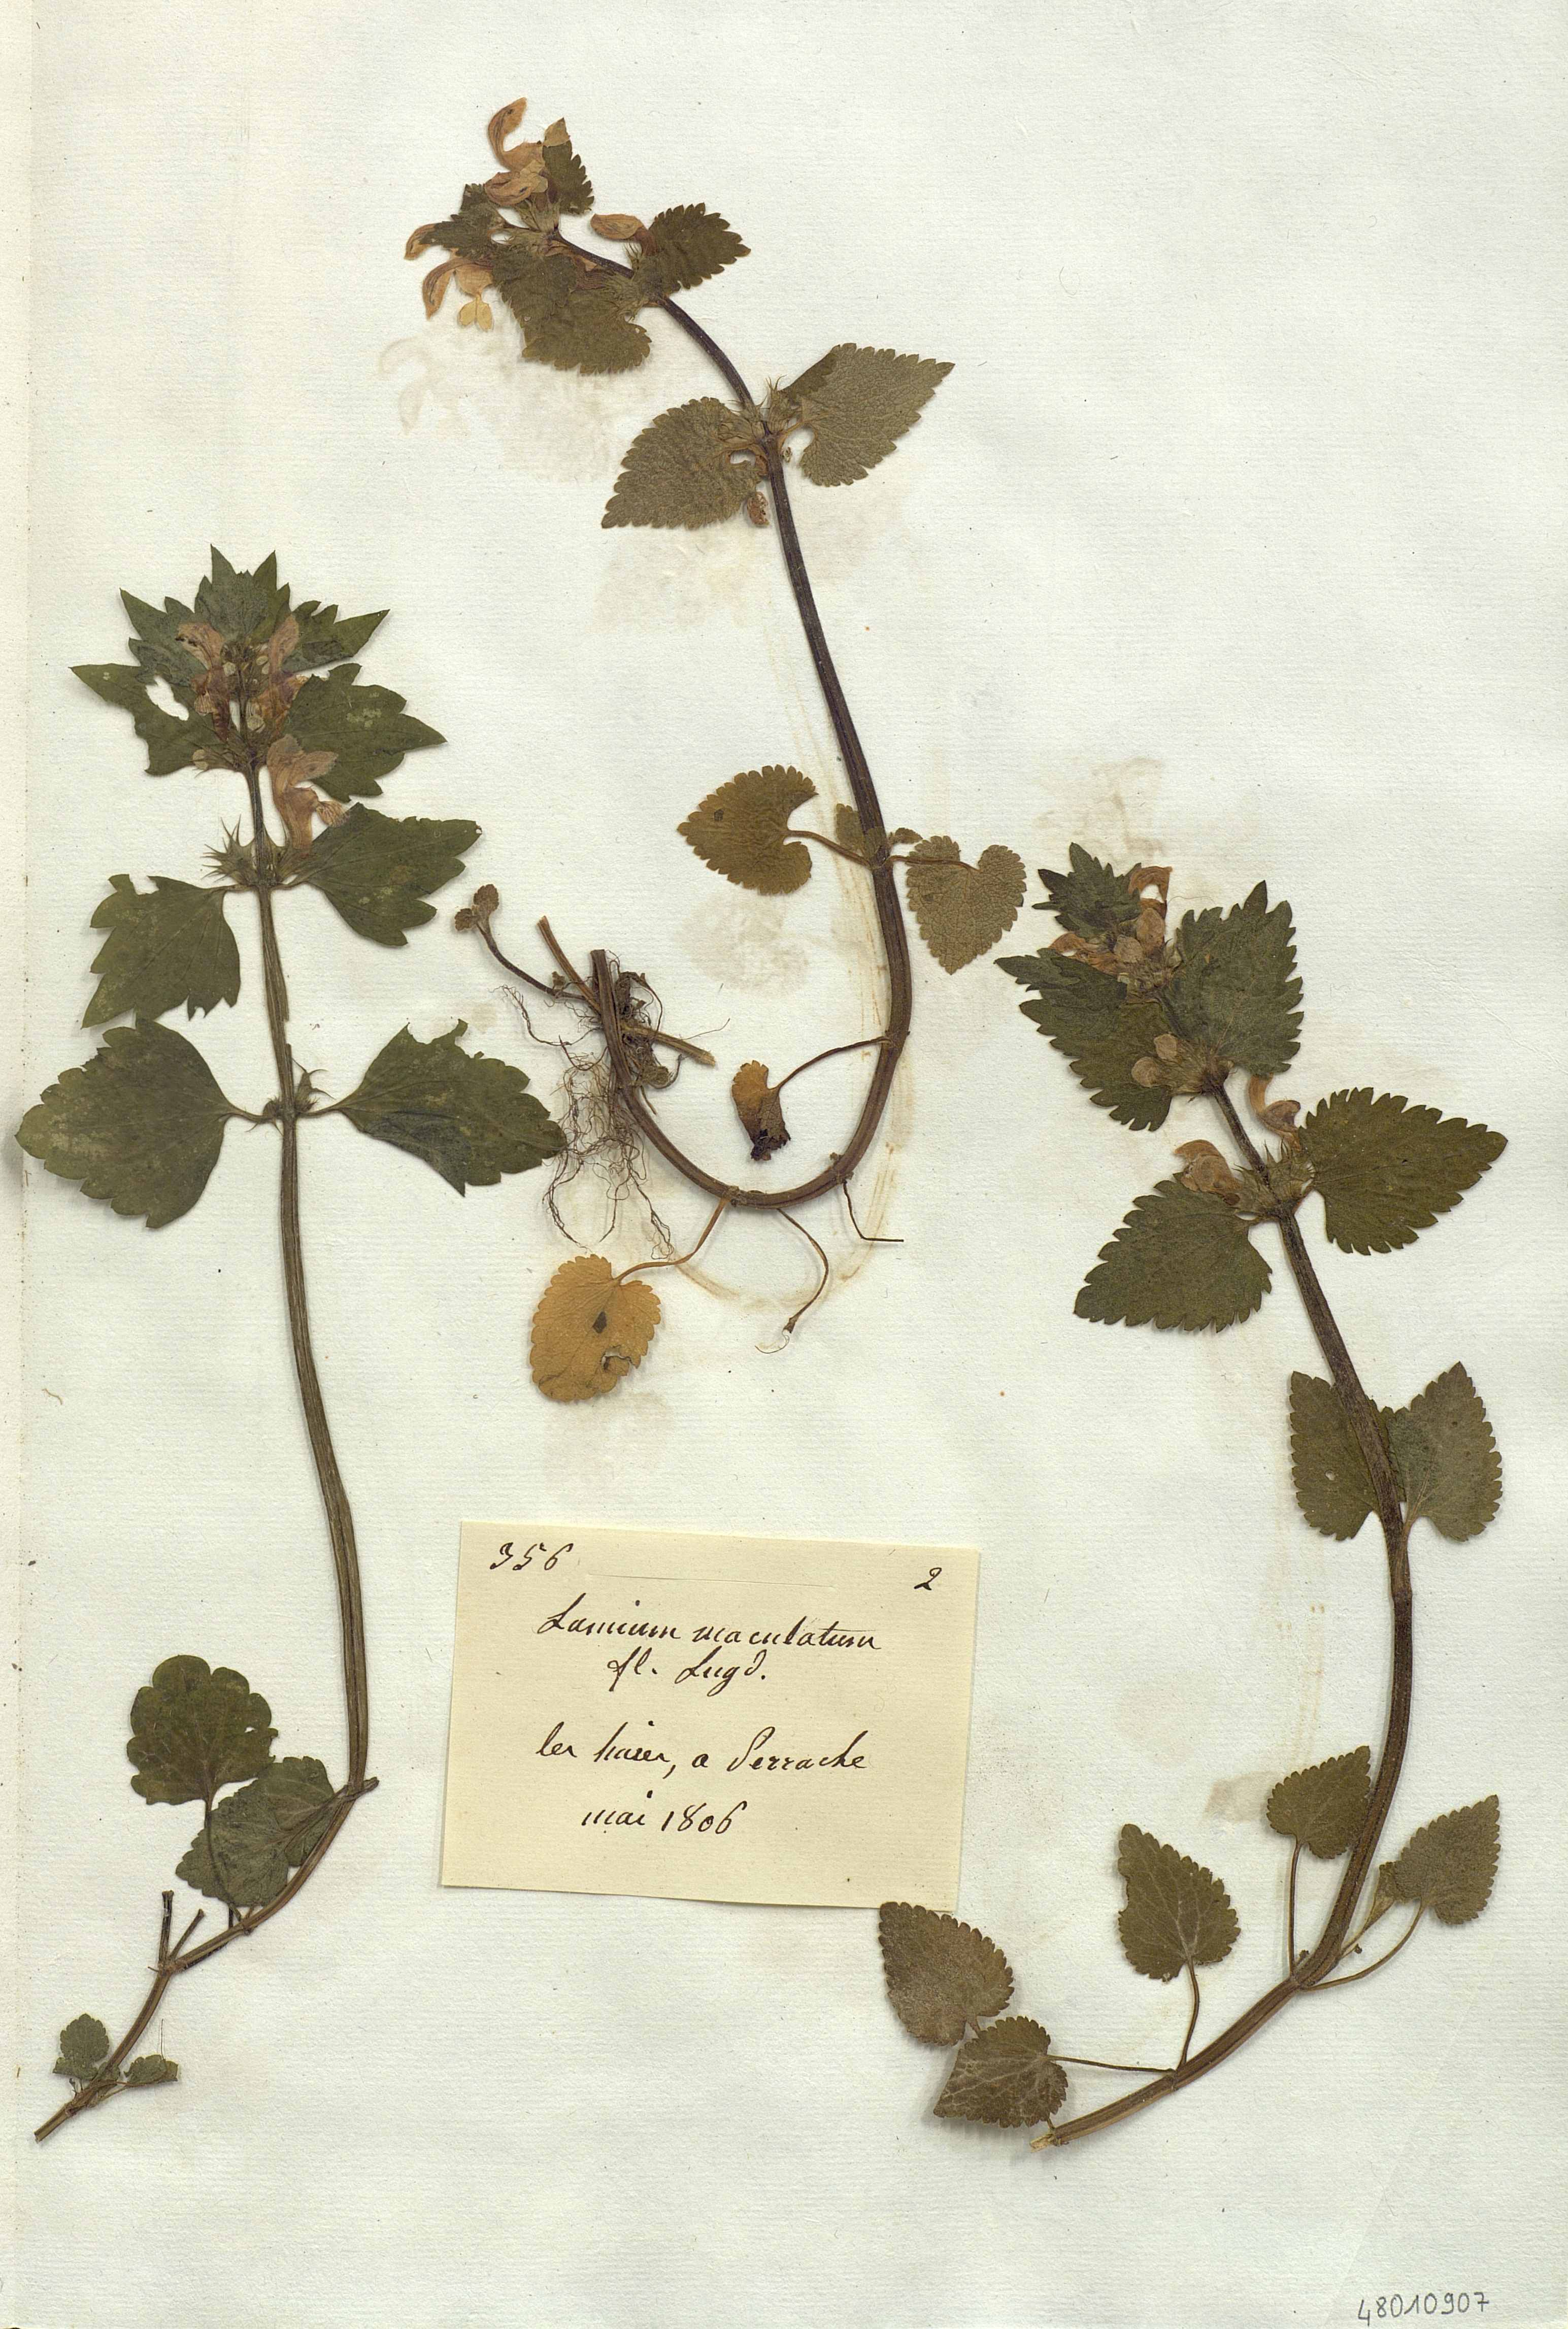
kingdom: Plantae
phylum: Tracheophyta
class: Magnoliopsida
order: Lamiales
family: Lamiaceae
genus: Lamium
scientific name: Lamium maculatum
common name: Spotted dead-nettle
